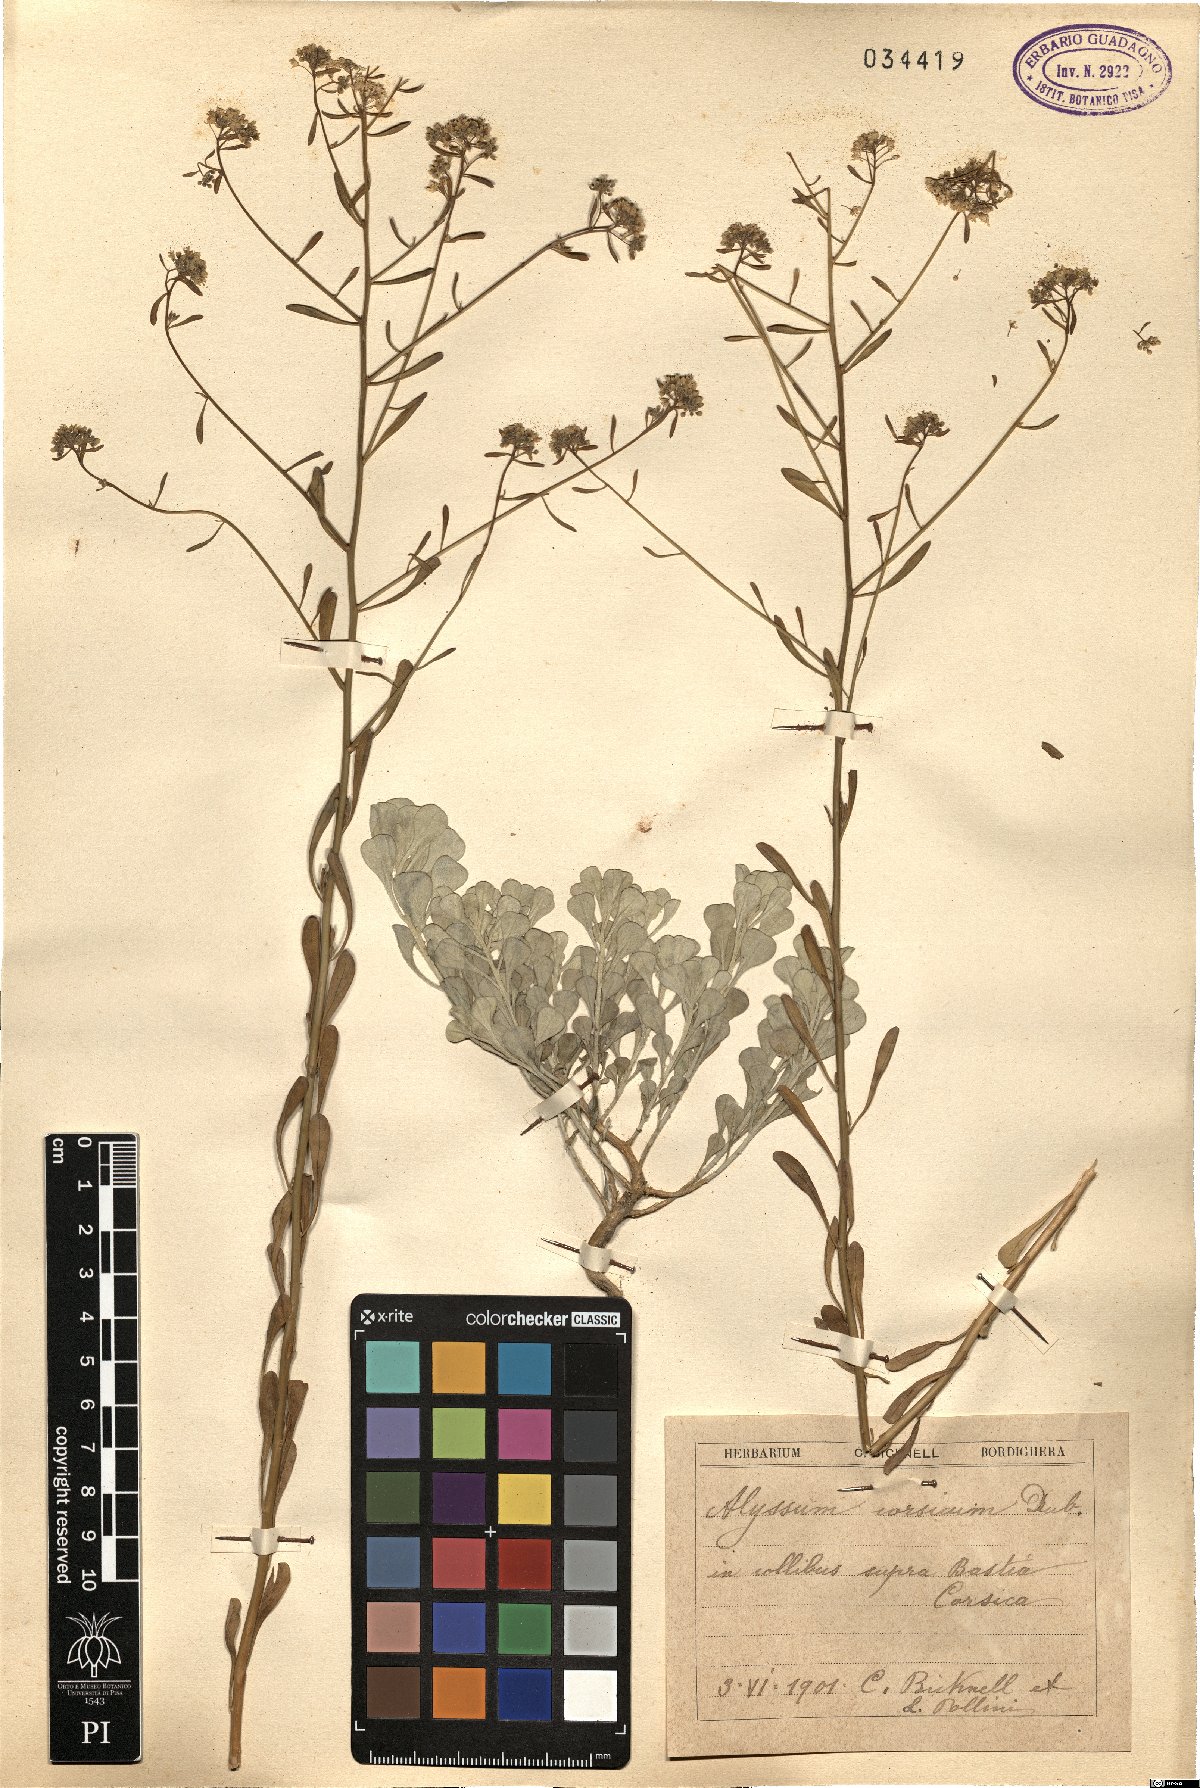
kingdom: Plantae
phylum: Tracheophyta
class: Magnoliopsida
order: Brassicales
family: Brassicaceae
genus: Odontarrhena
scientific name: Odontarrhena corsica
